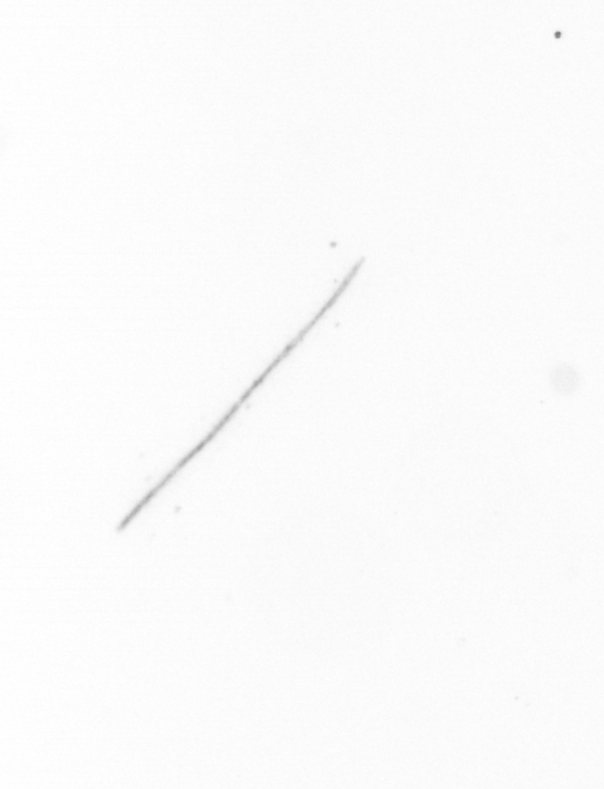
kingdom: Chromista
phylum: Ochrophyta
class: Bacillariophyceae
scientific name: Bacillariophyceae
